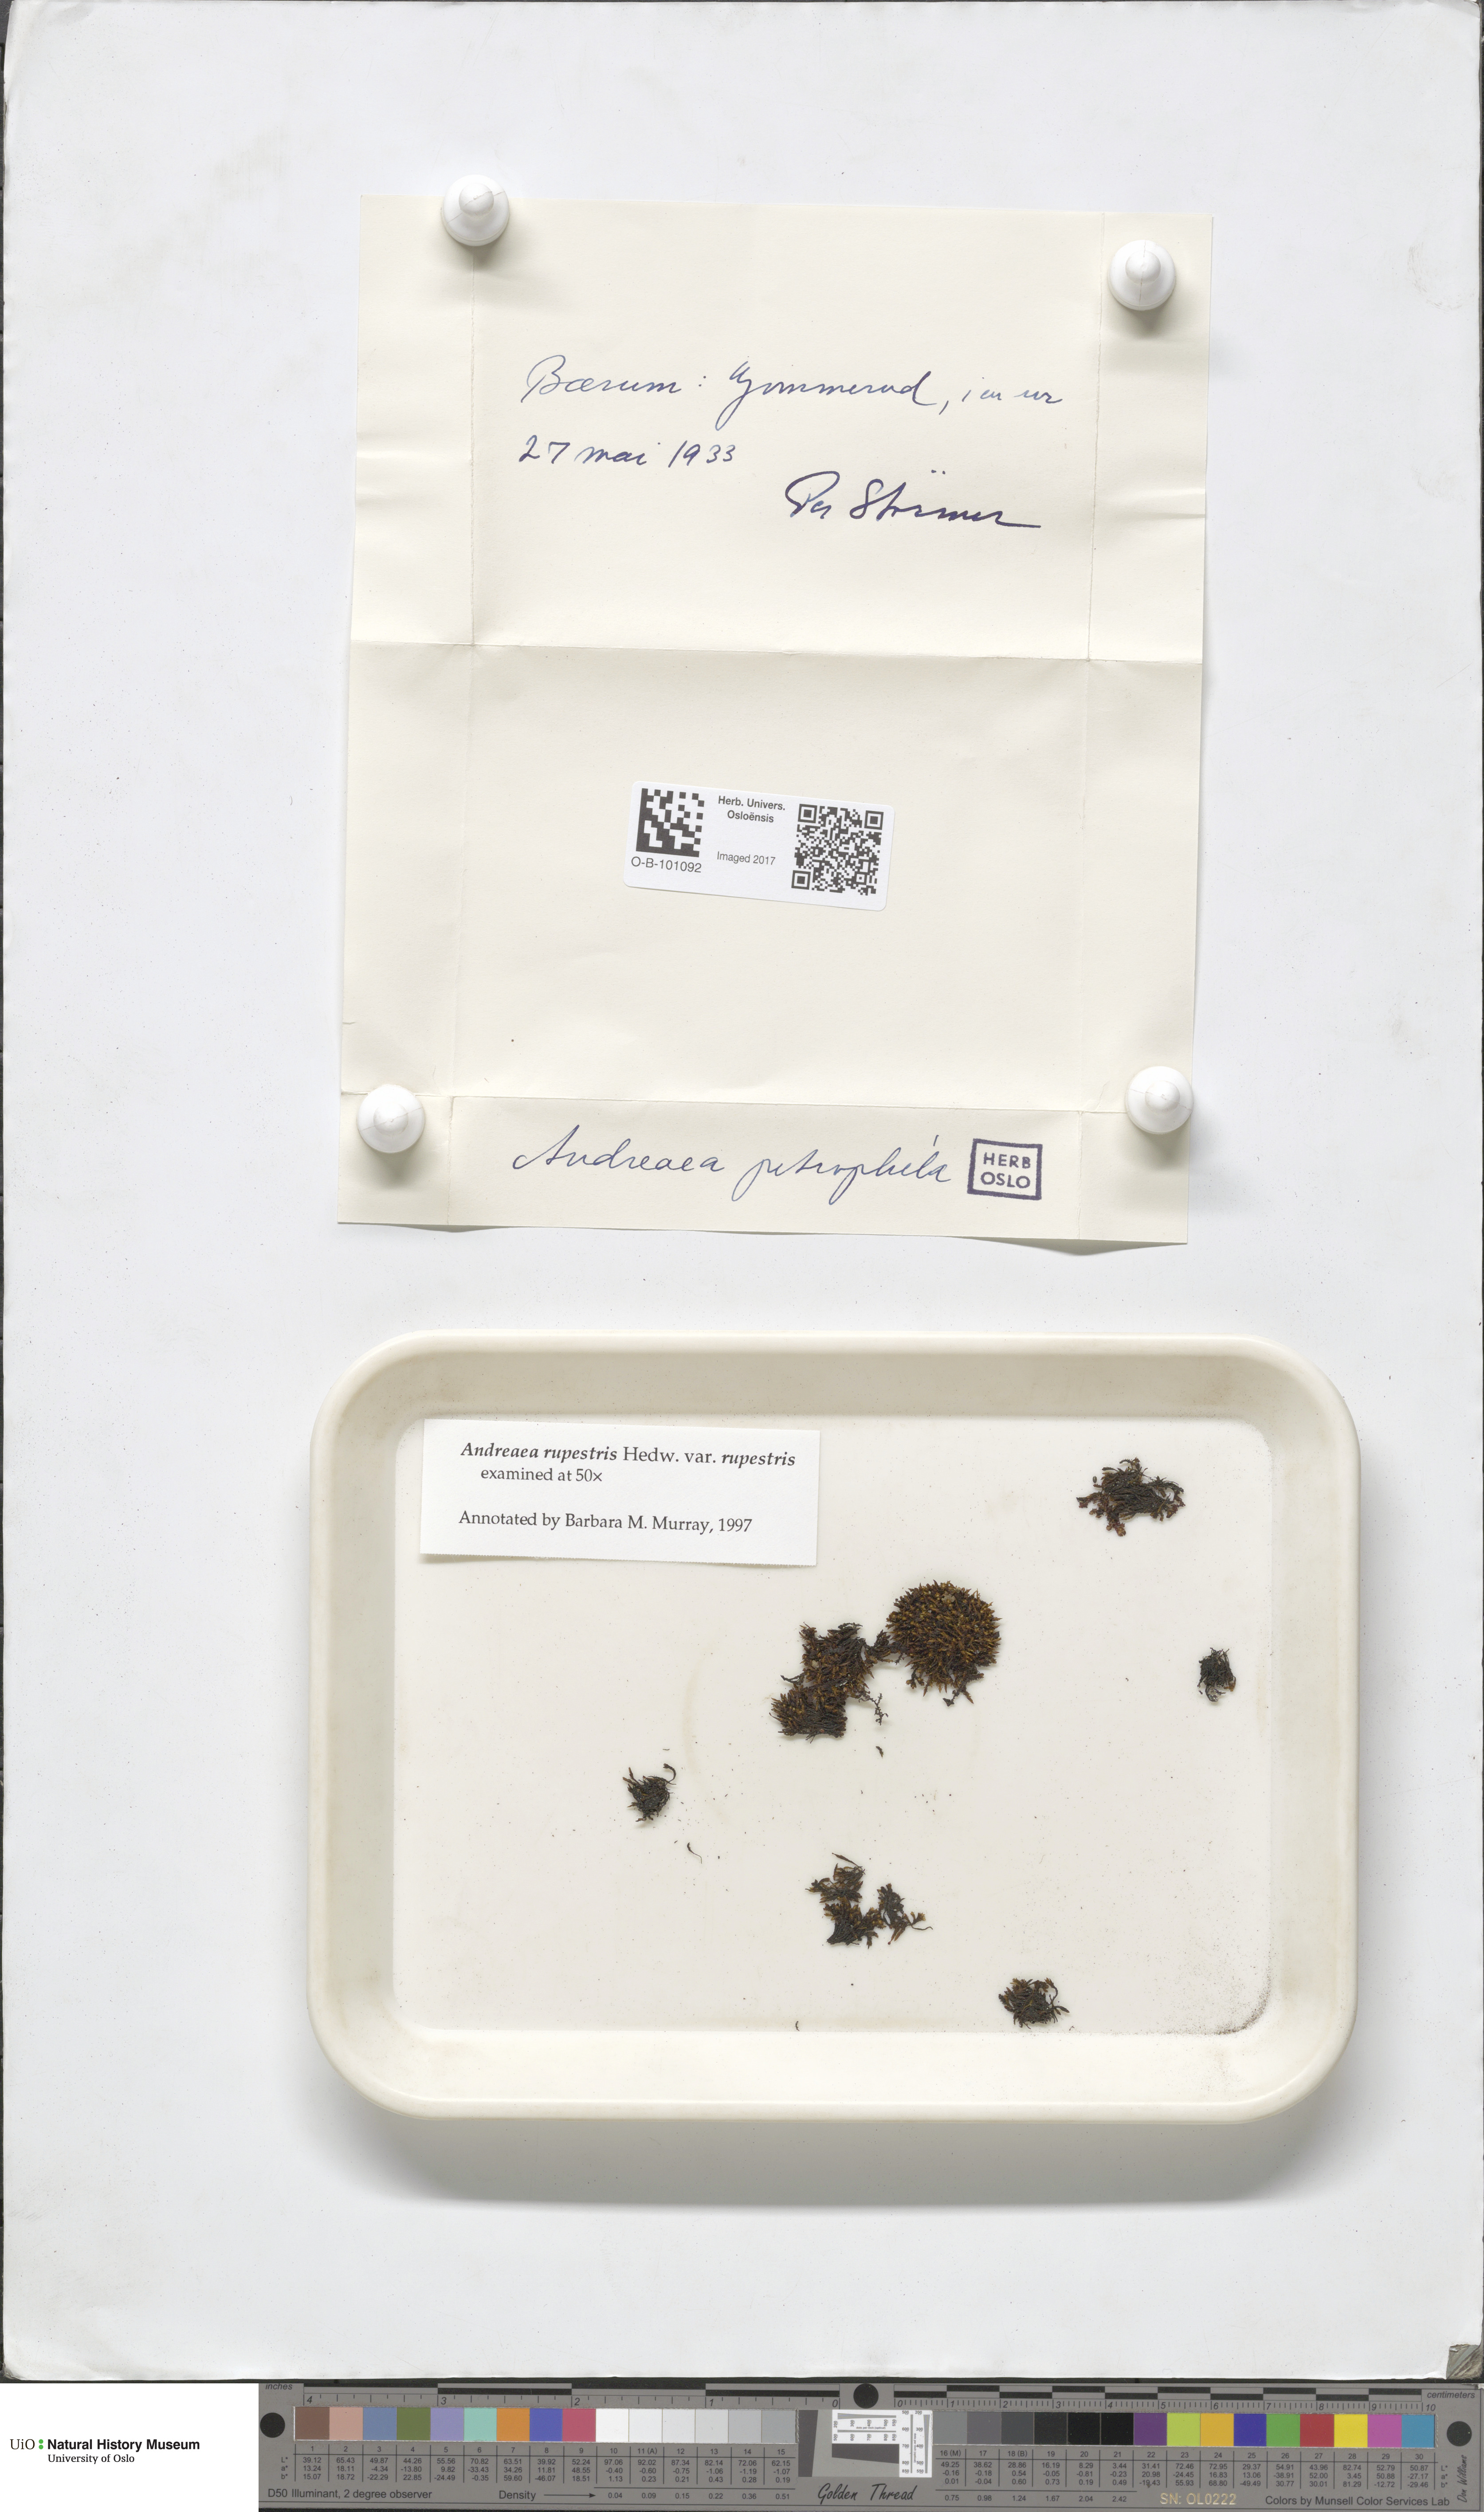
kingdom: Plantae
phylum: Bryophyta
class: Andreaeopsida
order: Andreaeales
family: Andreaeaceae
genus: Andreaea
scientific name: Andreaea rupestris
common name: Black rock moss
